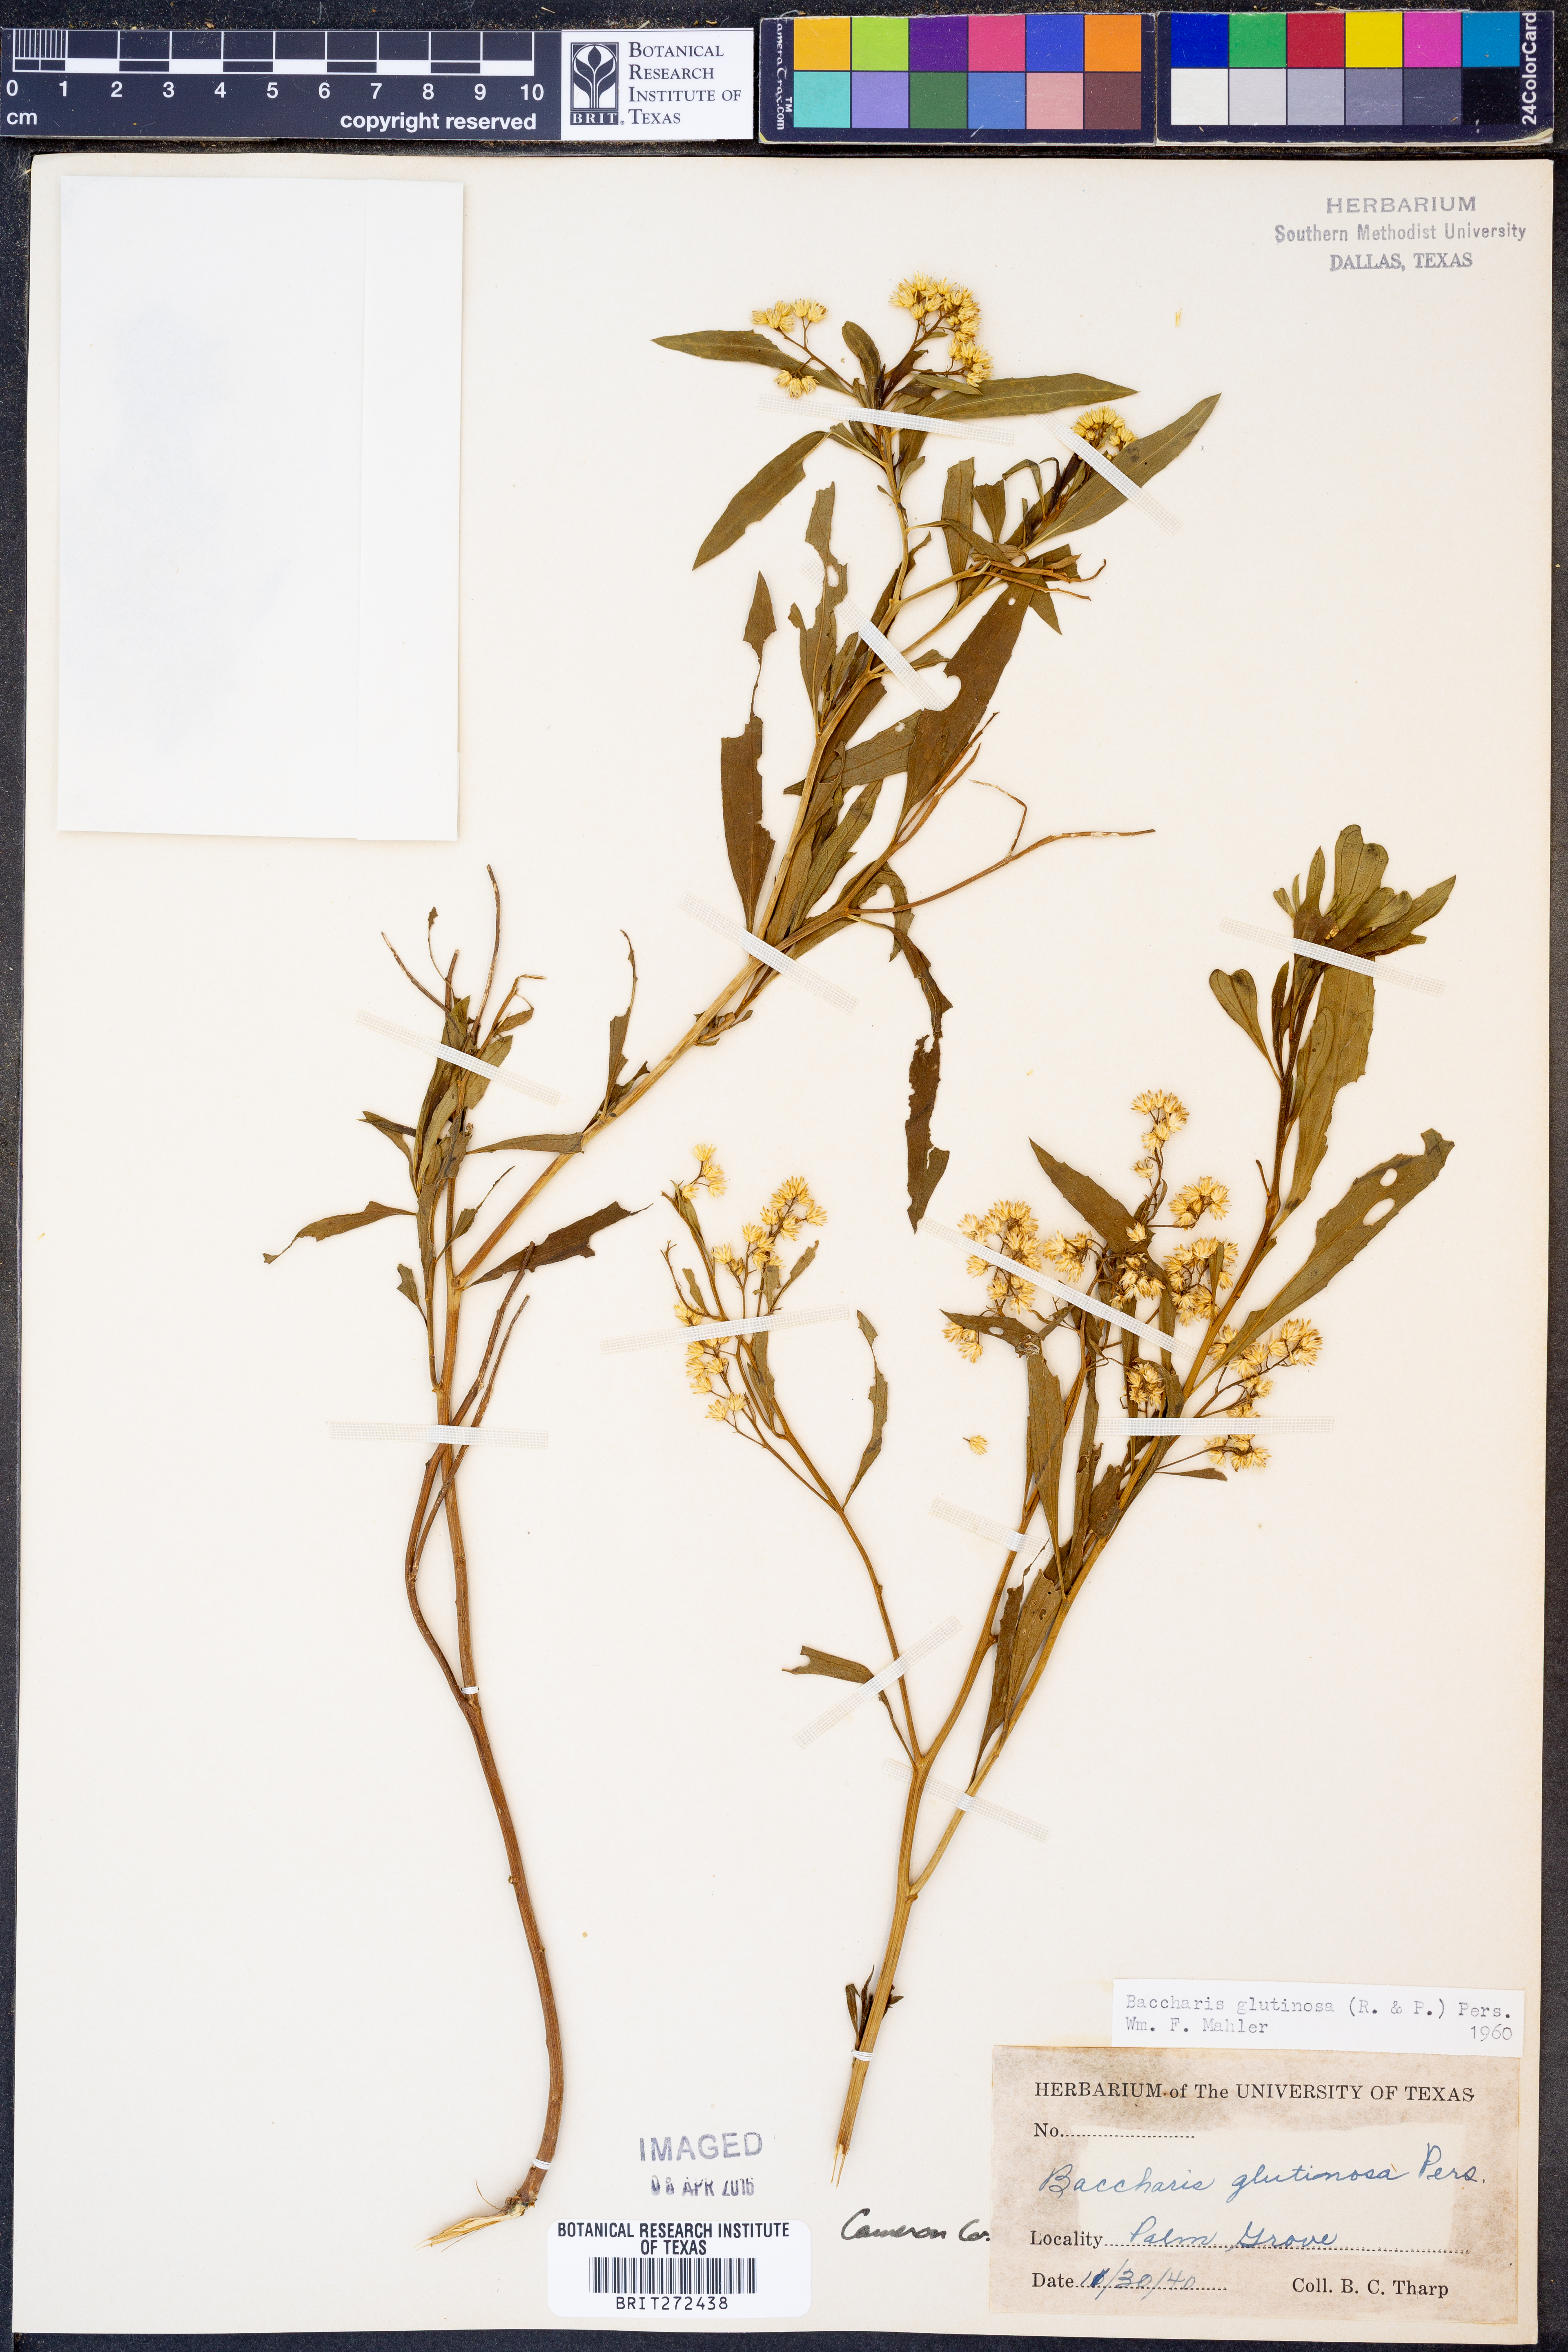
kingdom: Plantae
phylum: Tracheophyta
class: Magnoliopsida
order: Asterales
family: Asteraceae
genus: Baccharis
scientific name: Baccharis glutinosa
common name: Saltmarsh baccharis
